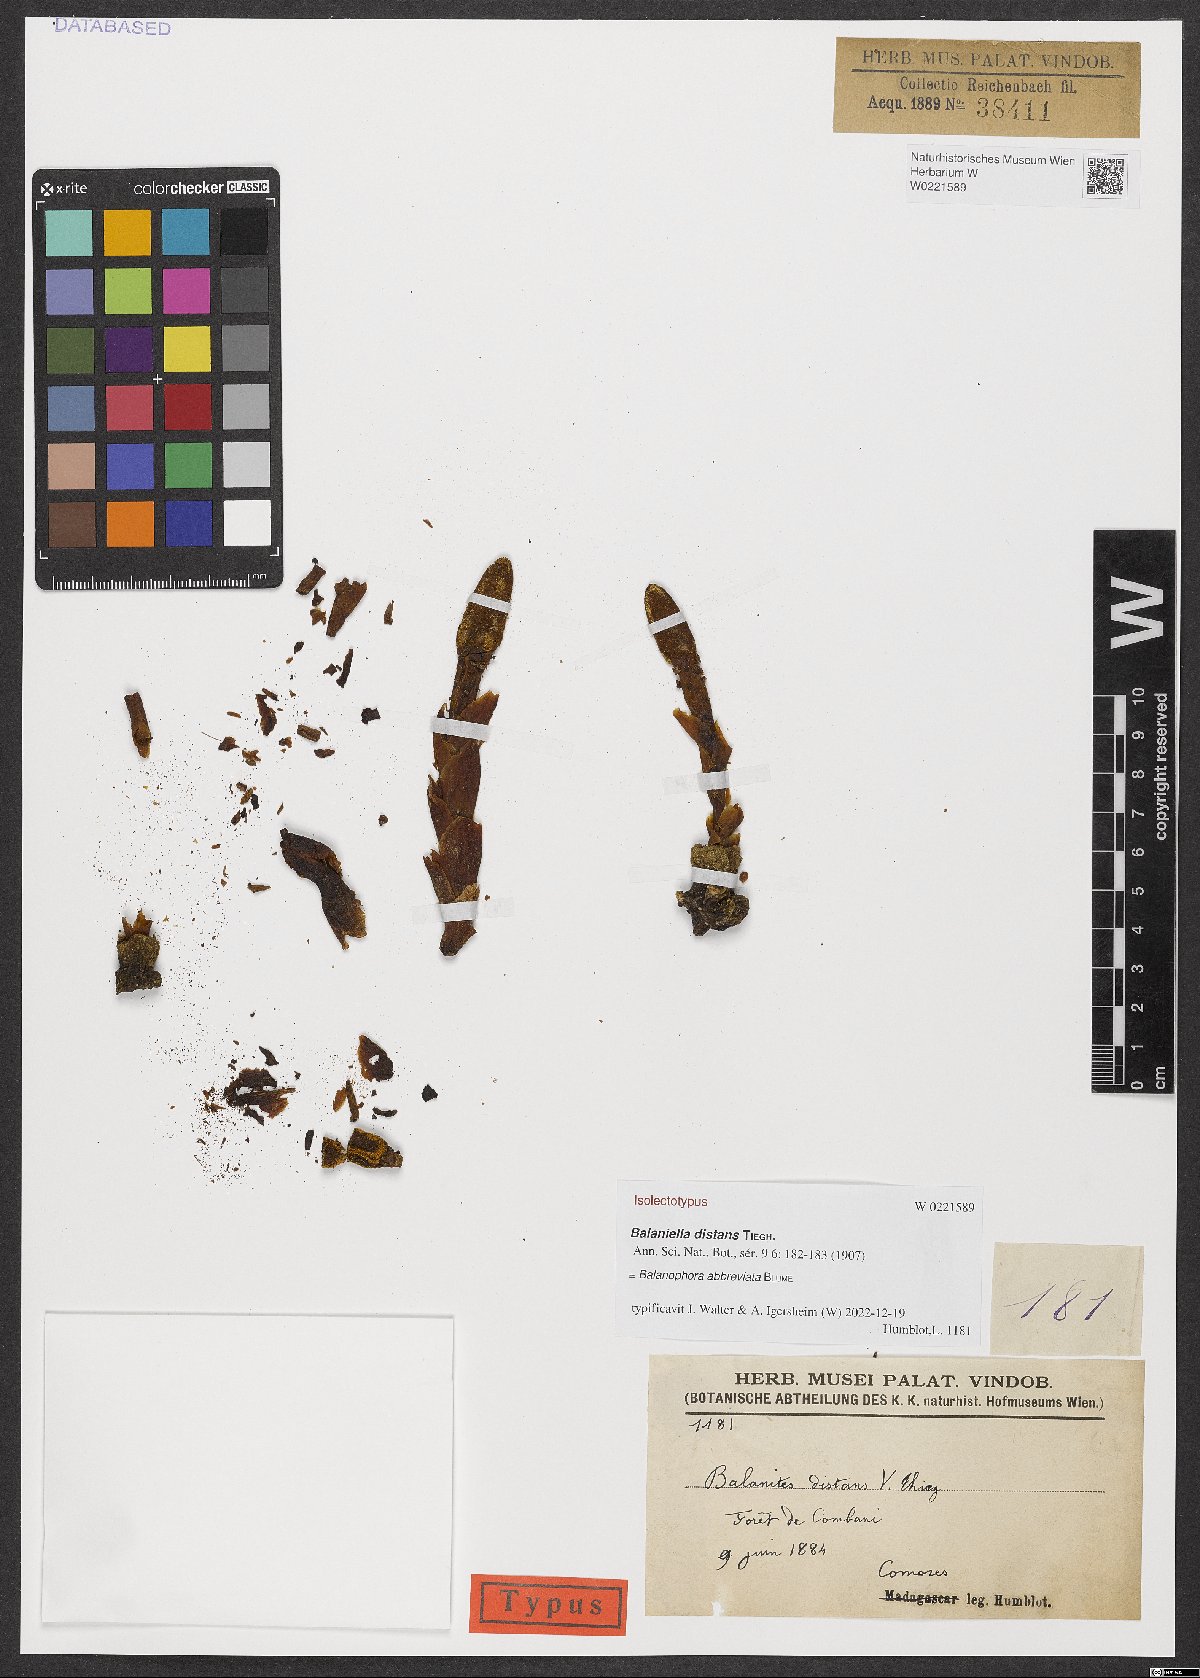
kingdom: Plantae
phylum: Tracheophyta
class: Magnoliopsida
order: Santalales
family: Balanophoraceae
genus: Balanophora
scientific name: Balanophora abbreviata
